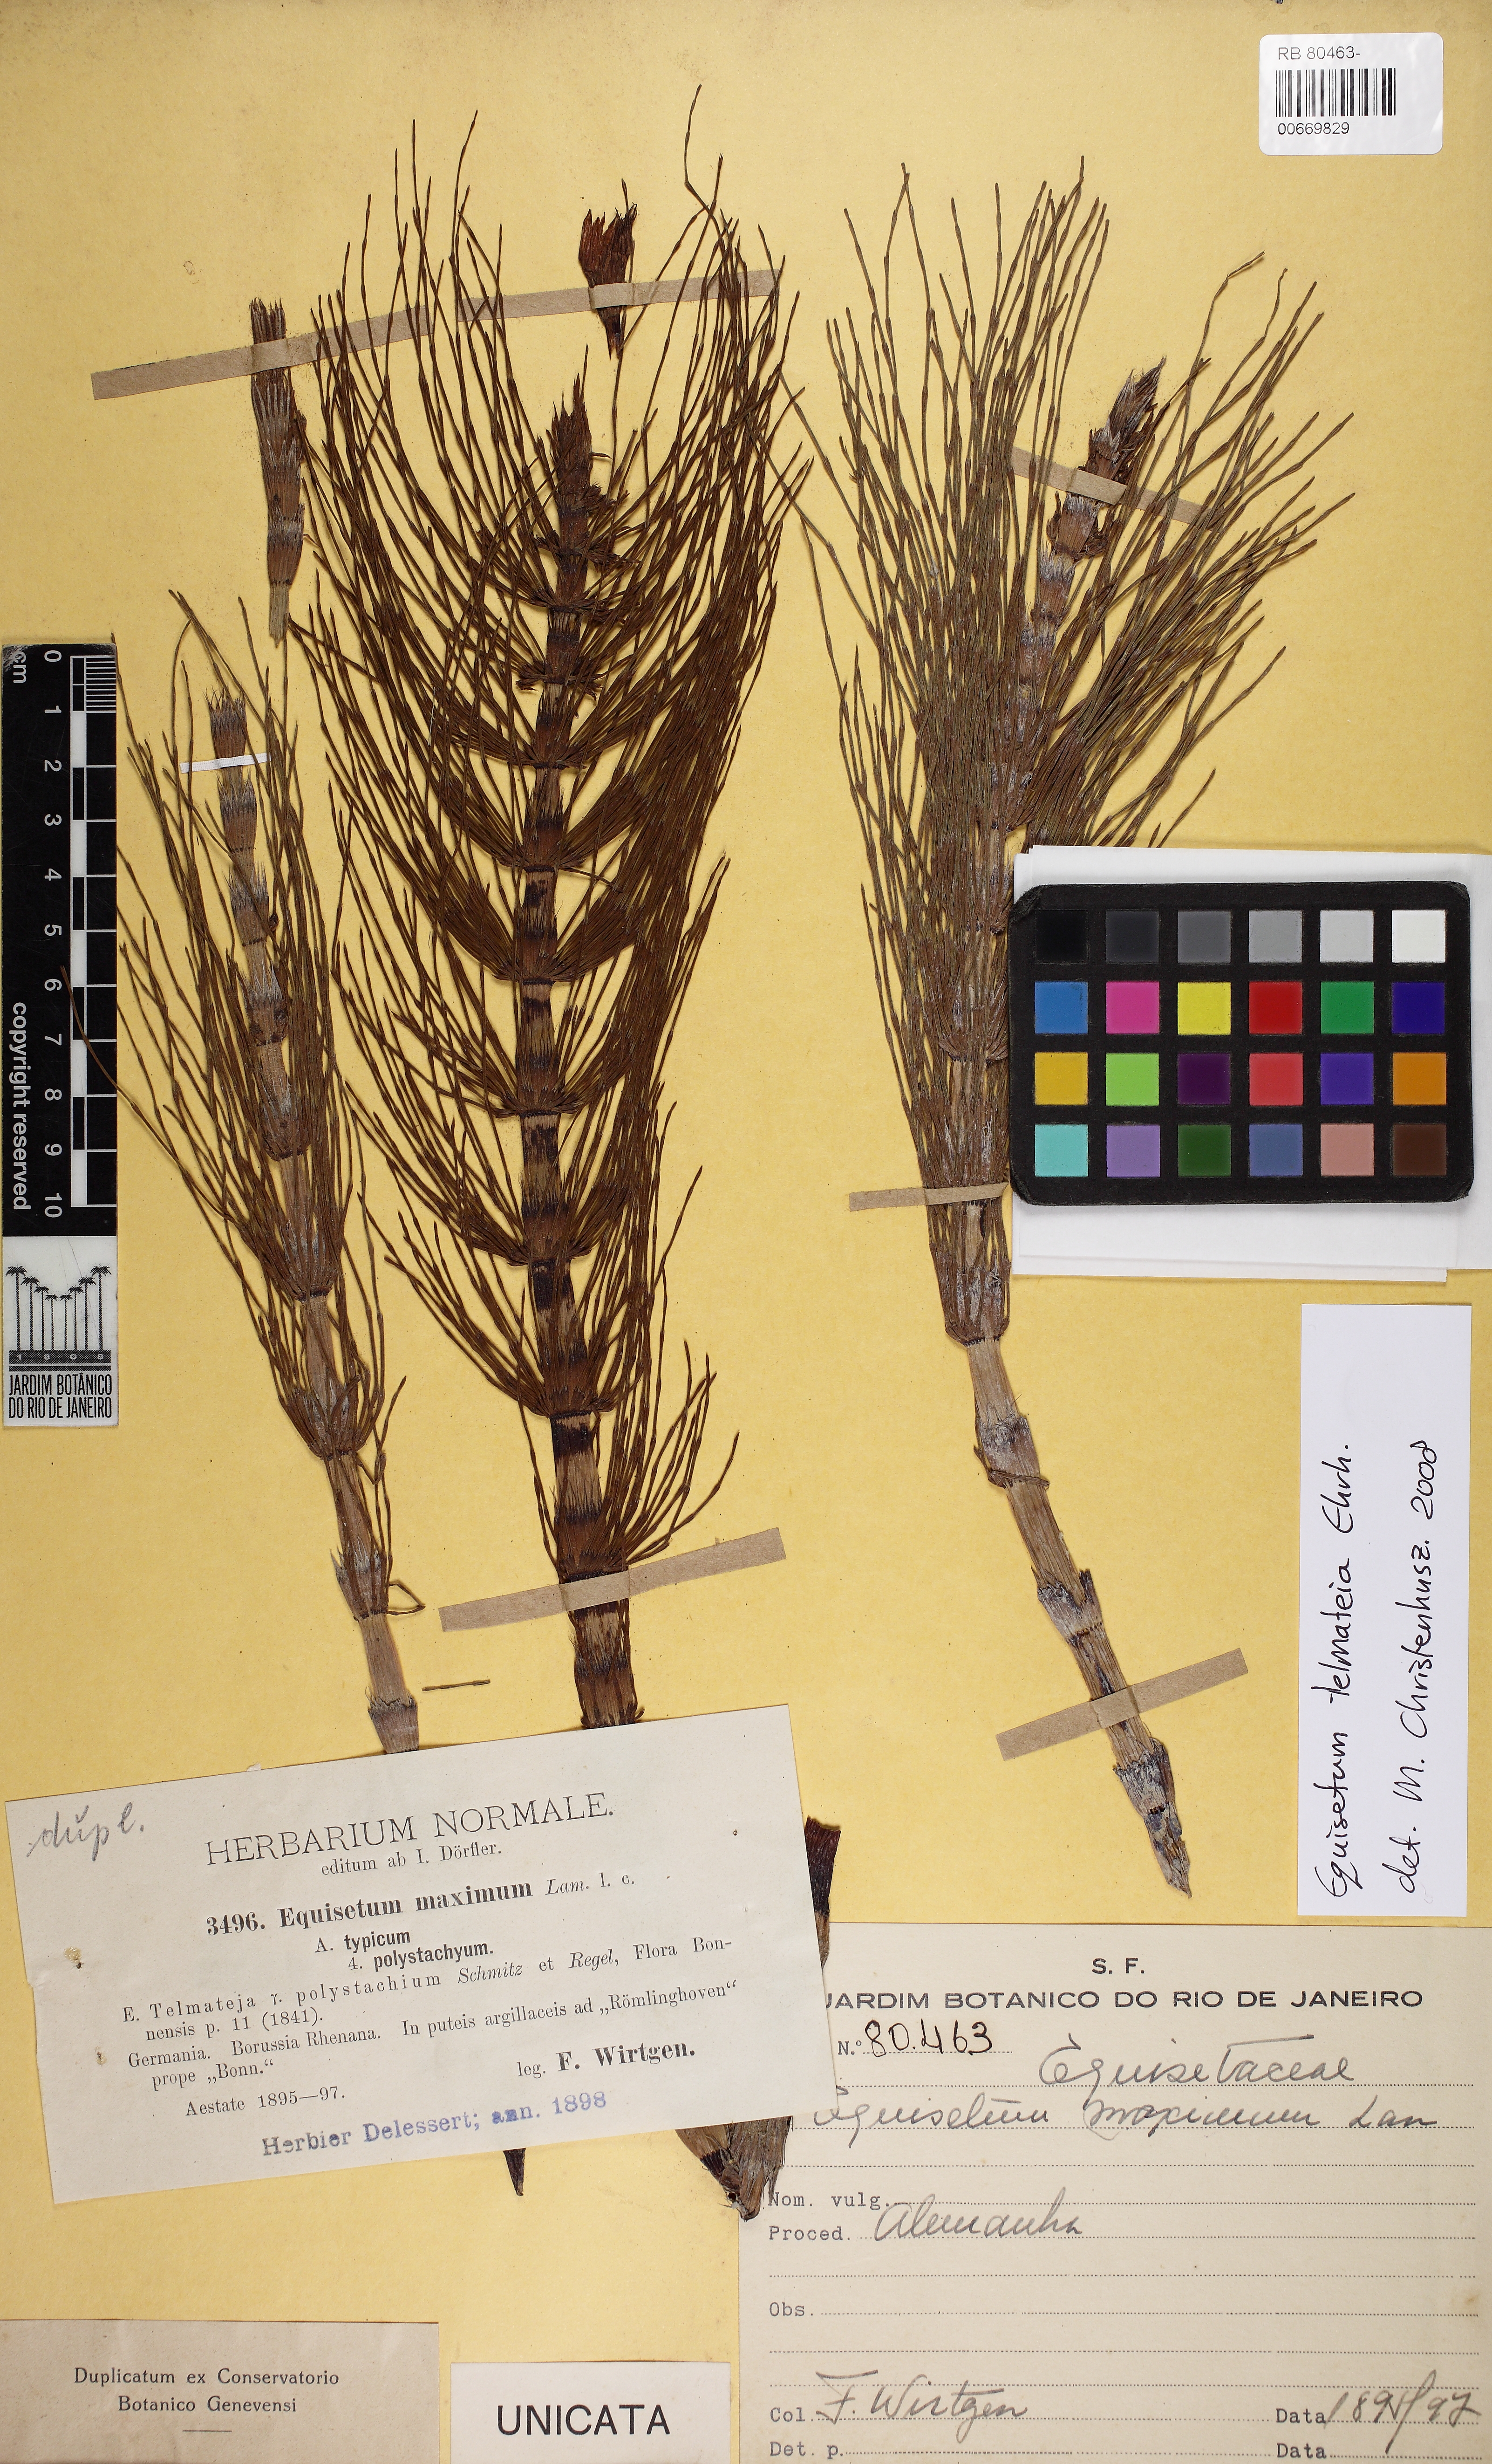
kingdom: Plantae
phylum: Tracheophyta
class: Polypodiopsida
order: Equisetales
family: Equisetaceae
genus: Equisetum
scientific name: Equisetum telmateia
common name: Great horsetail
